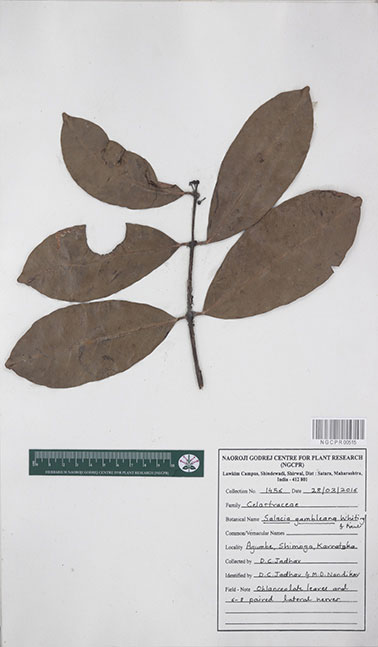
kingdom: Plantae
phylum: Tracheophyta
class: Magnoliopsida
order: Celastrales
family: Celastraceae
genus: Salacia
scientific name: Salacia gambleana
